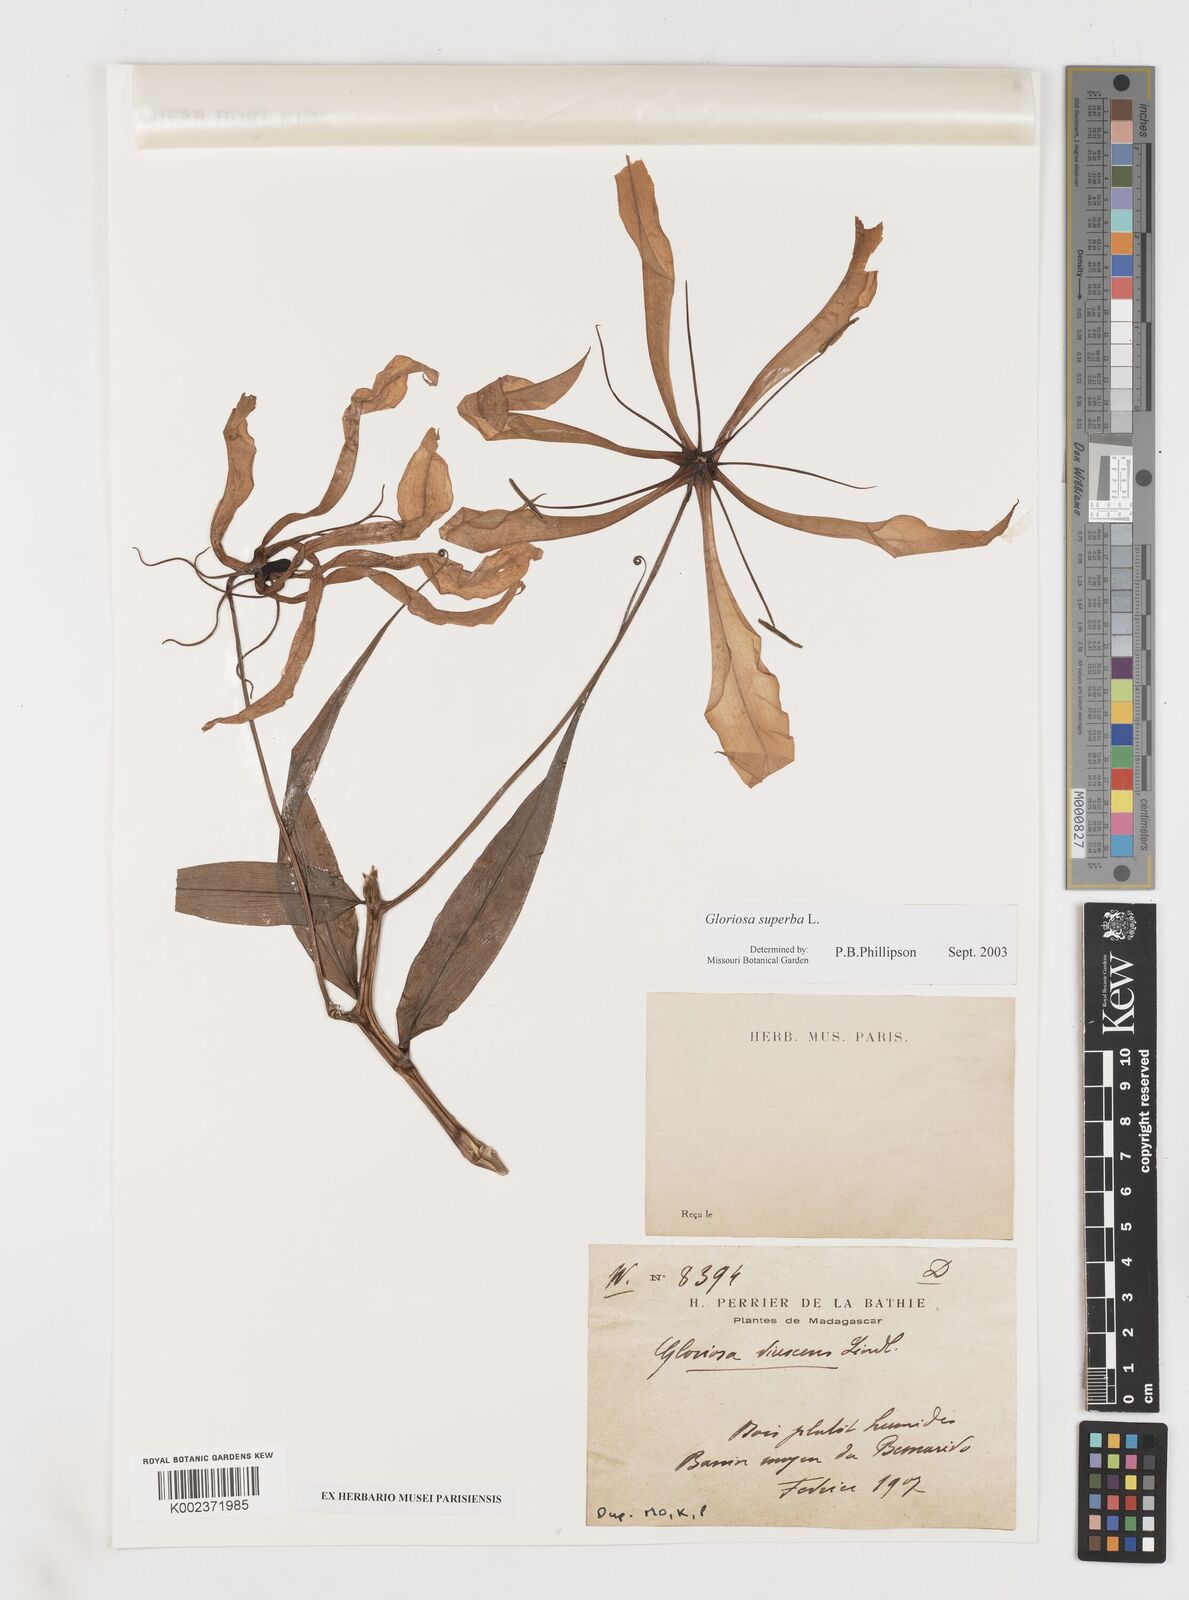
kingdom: Plantae
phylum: Tracheophyta
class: Liliopsida
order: Liliales
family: Colchicaceae
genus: Gloriosa
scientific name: Gloriosa simplex
